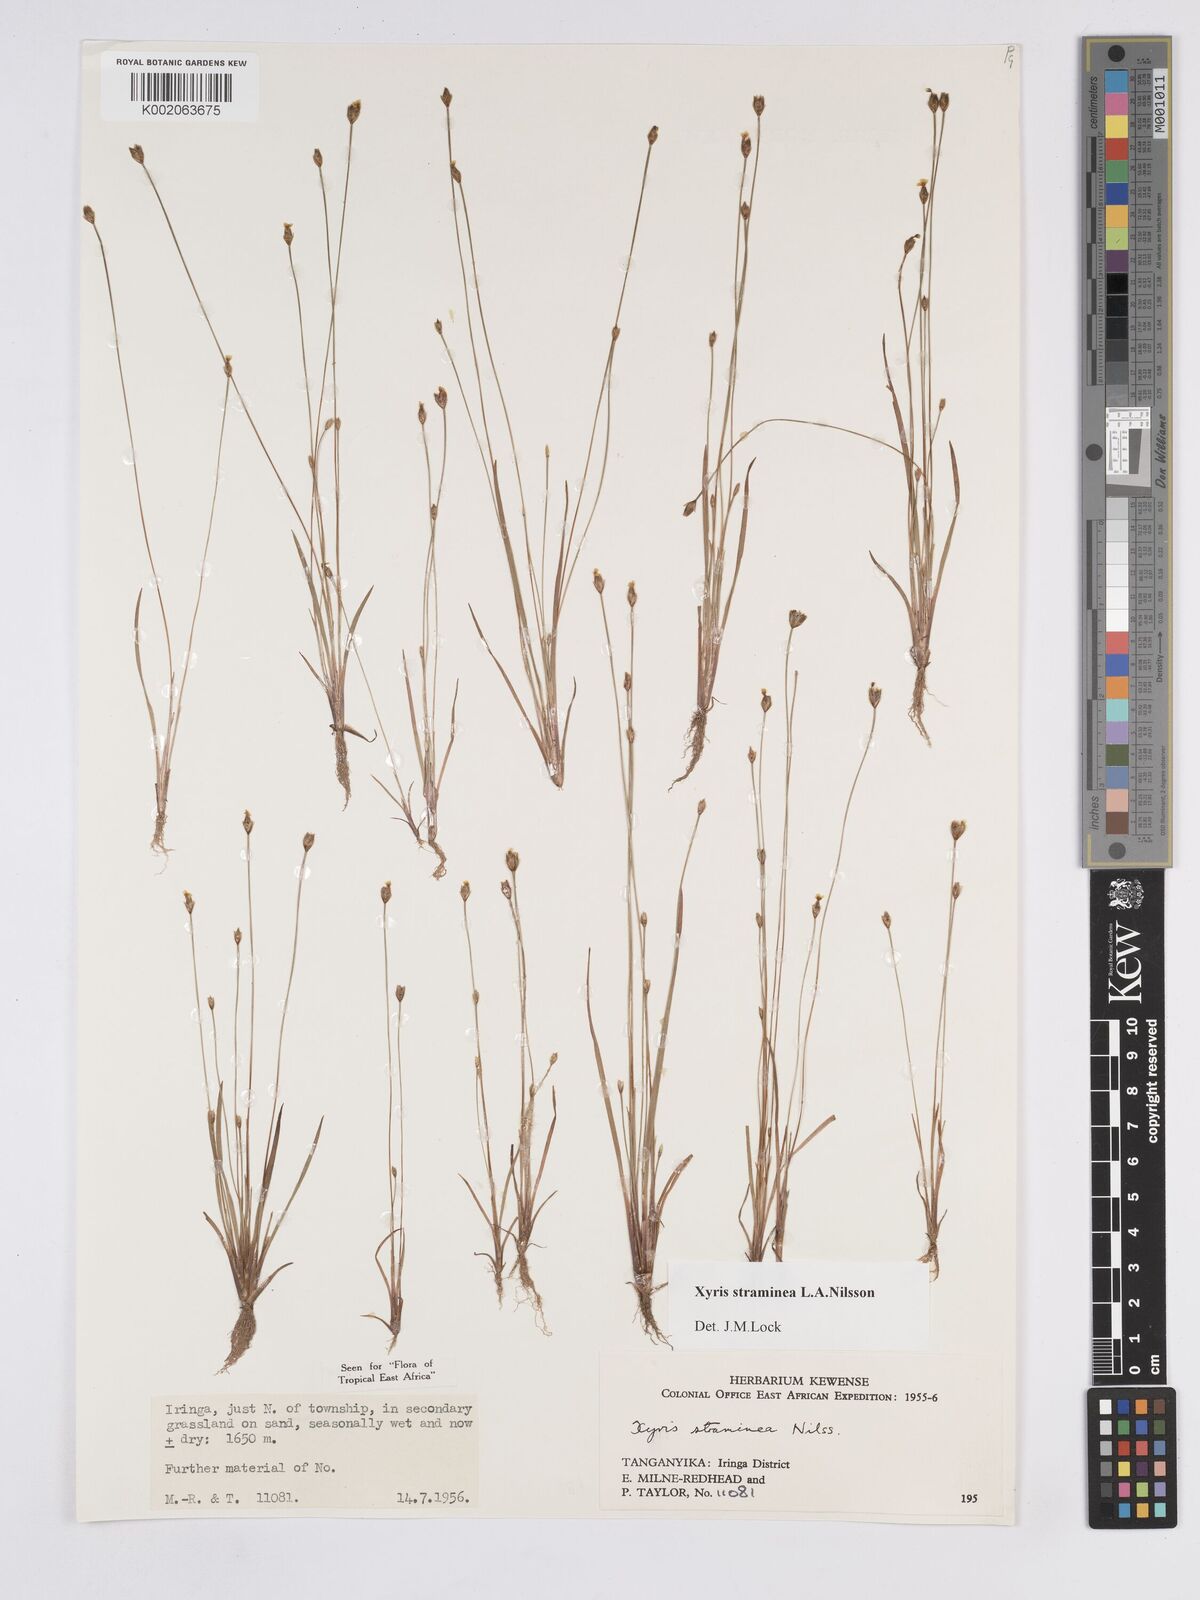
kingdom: Plantae
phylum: Tracheophyta
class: Liliopsida
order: Poales
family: Xyridaceae
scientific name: Xyridaceae
